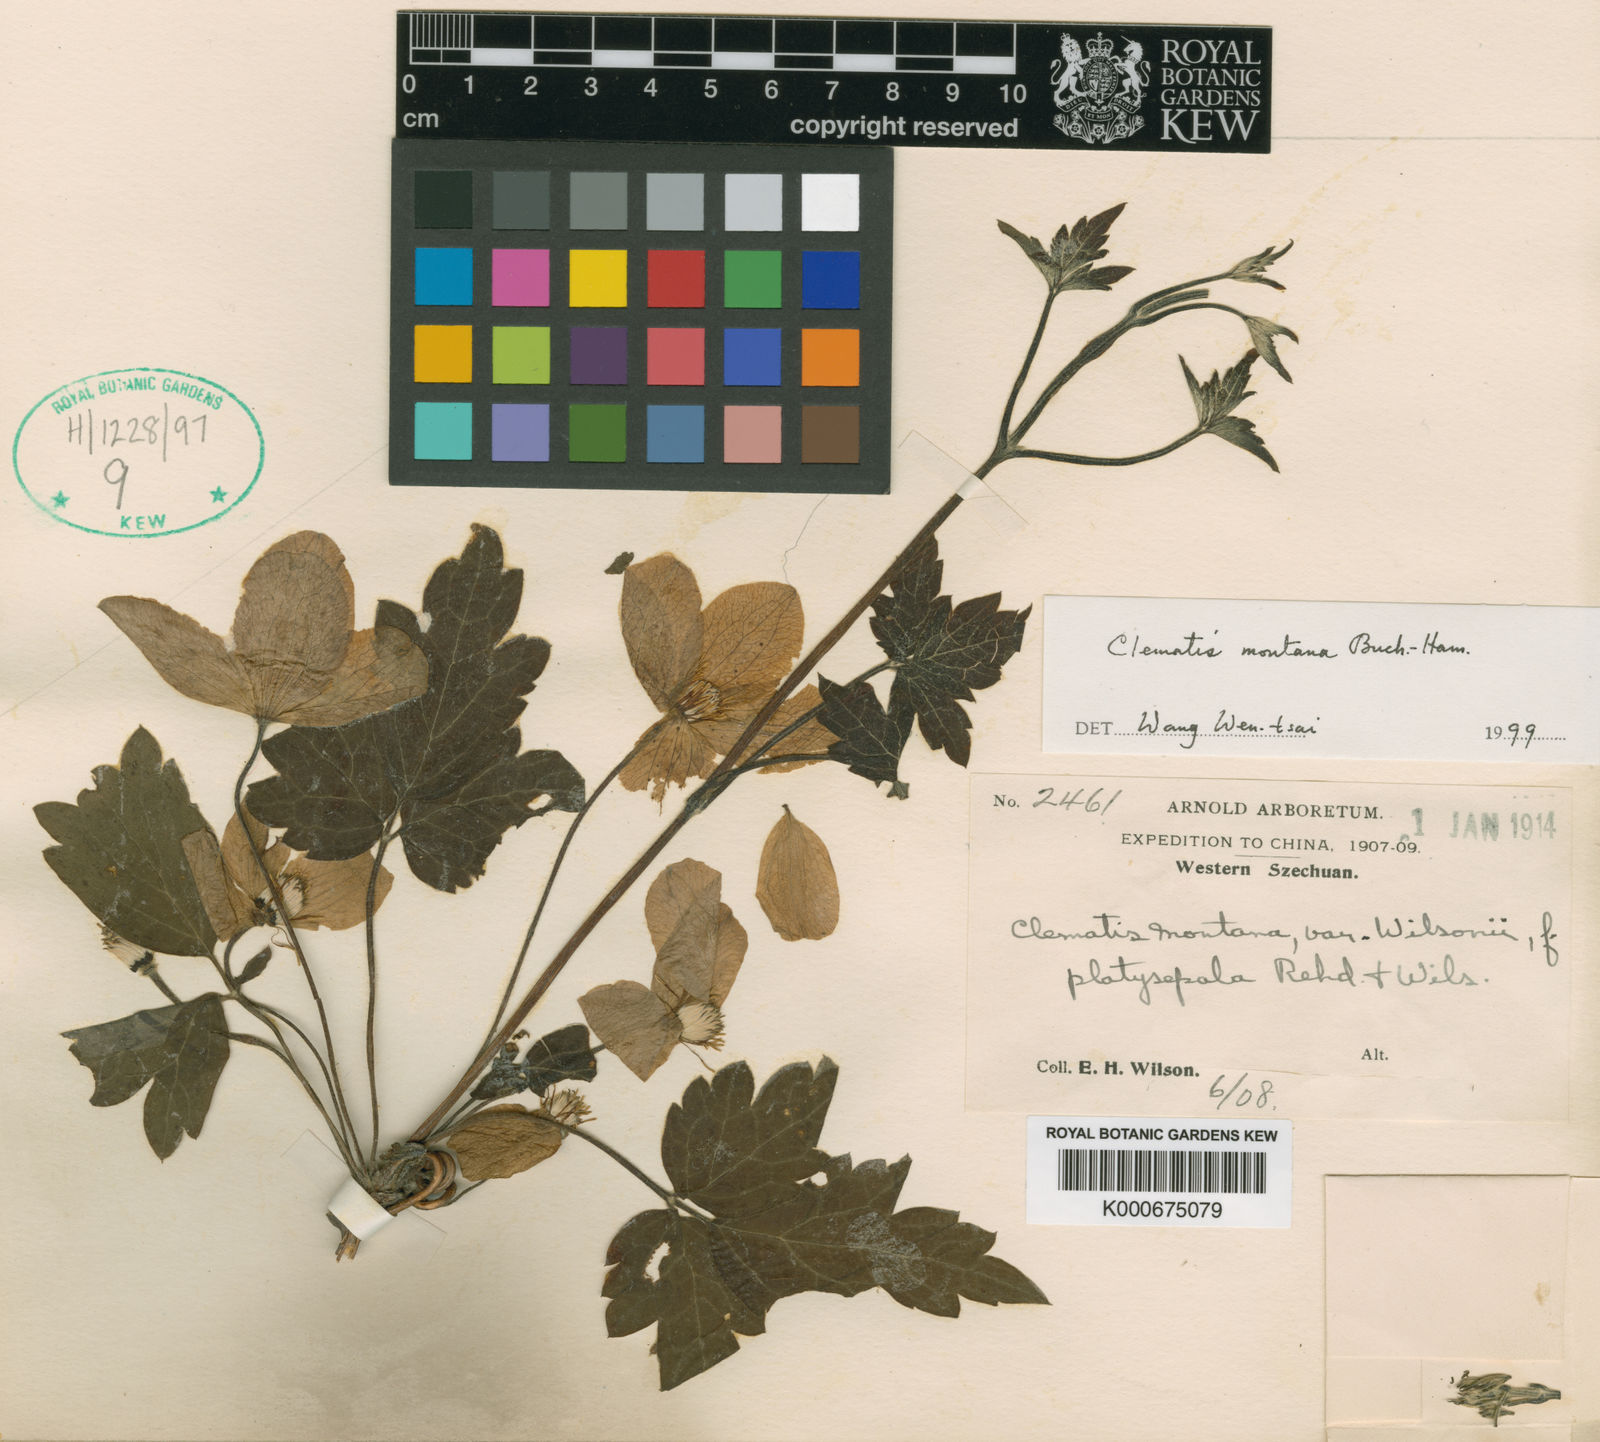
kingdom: Plantae
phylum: Tracheophyta
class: Magnoliopsida
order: Ranunculales
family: Ranunculaceae
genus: Clematis
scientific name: Clematis montana
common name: Himalayan clematis
